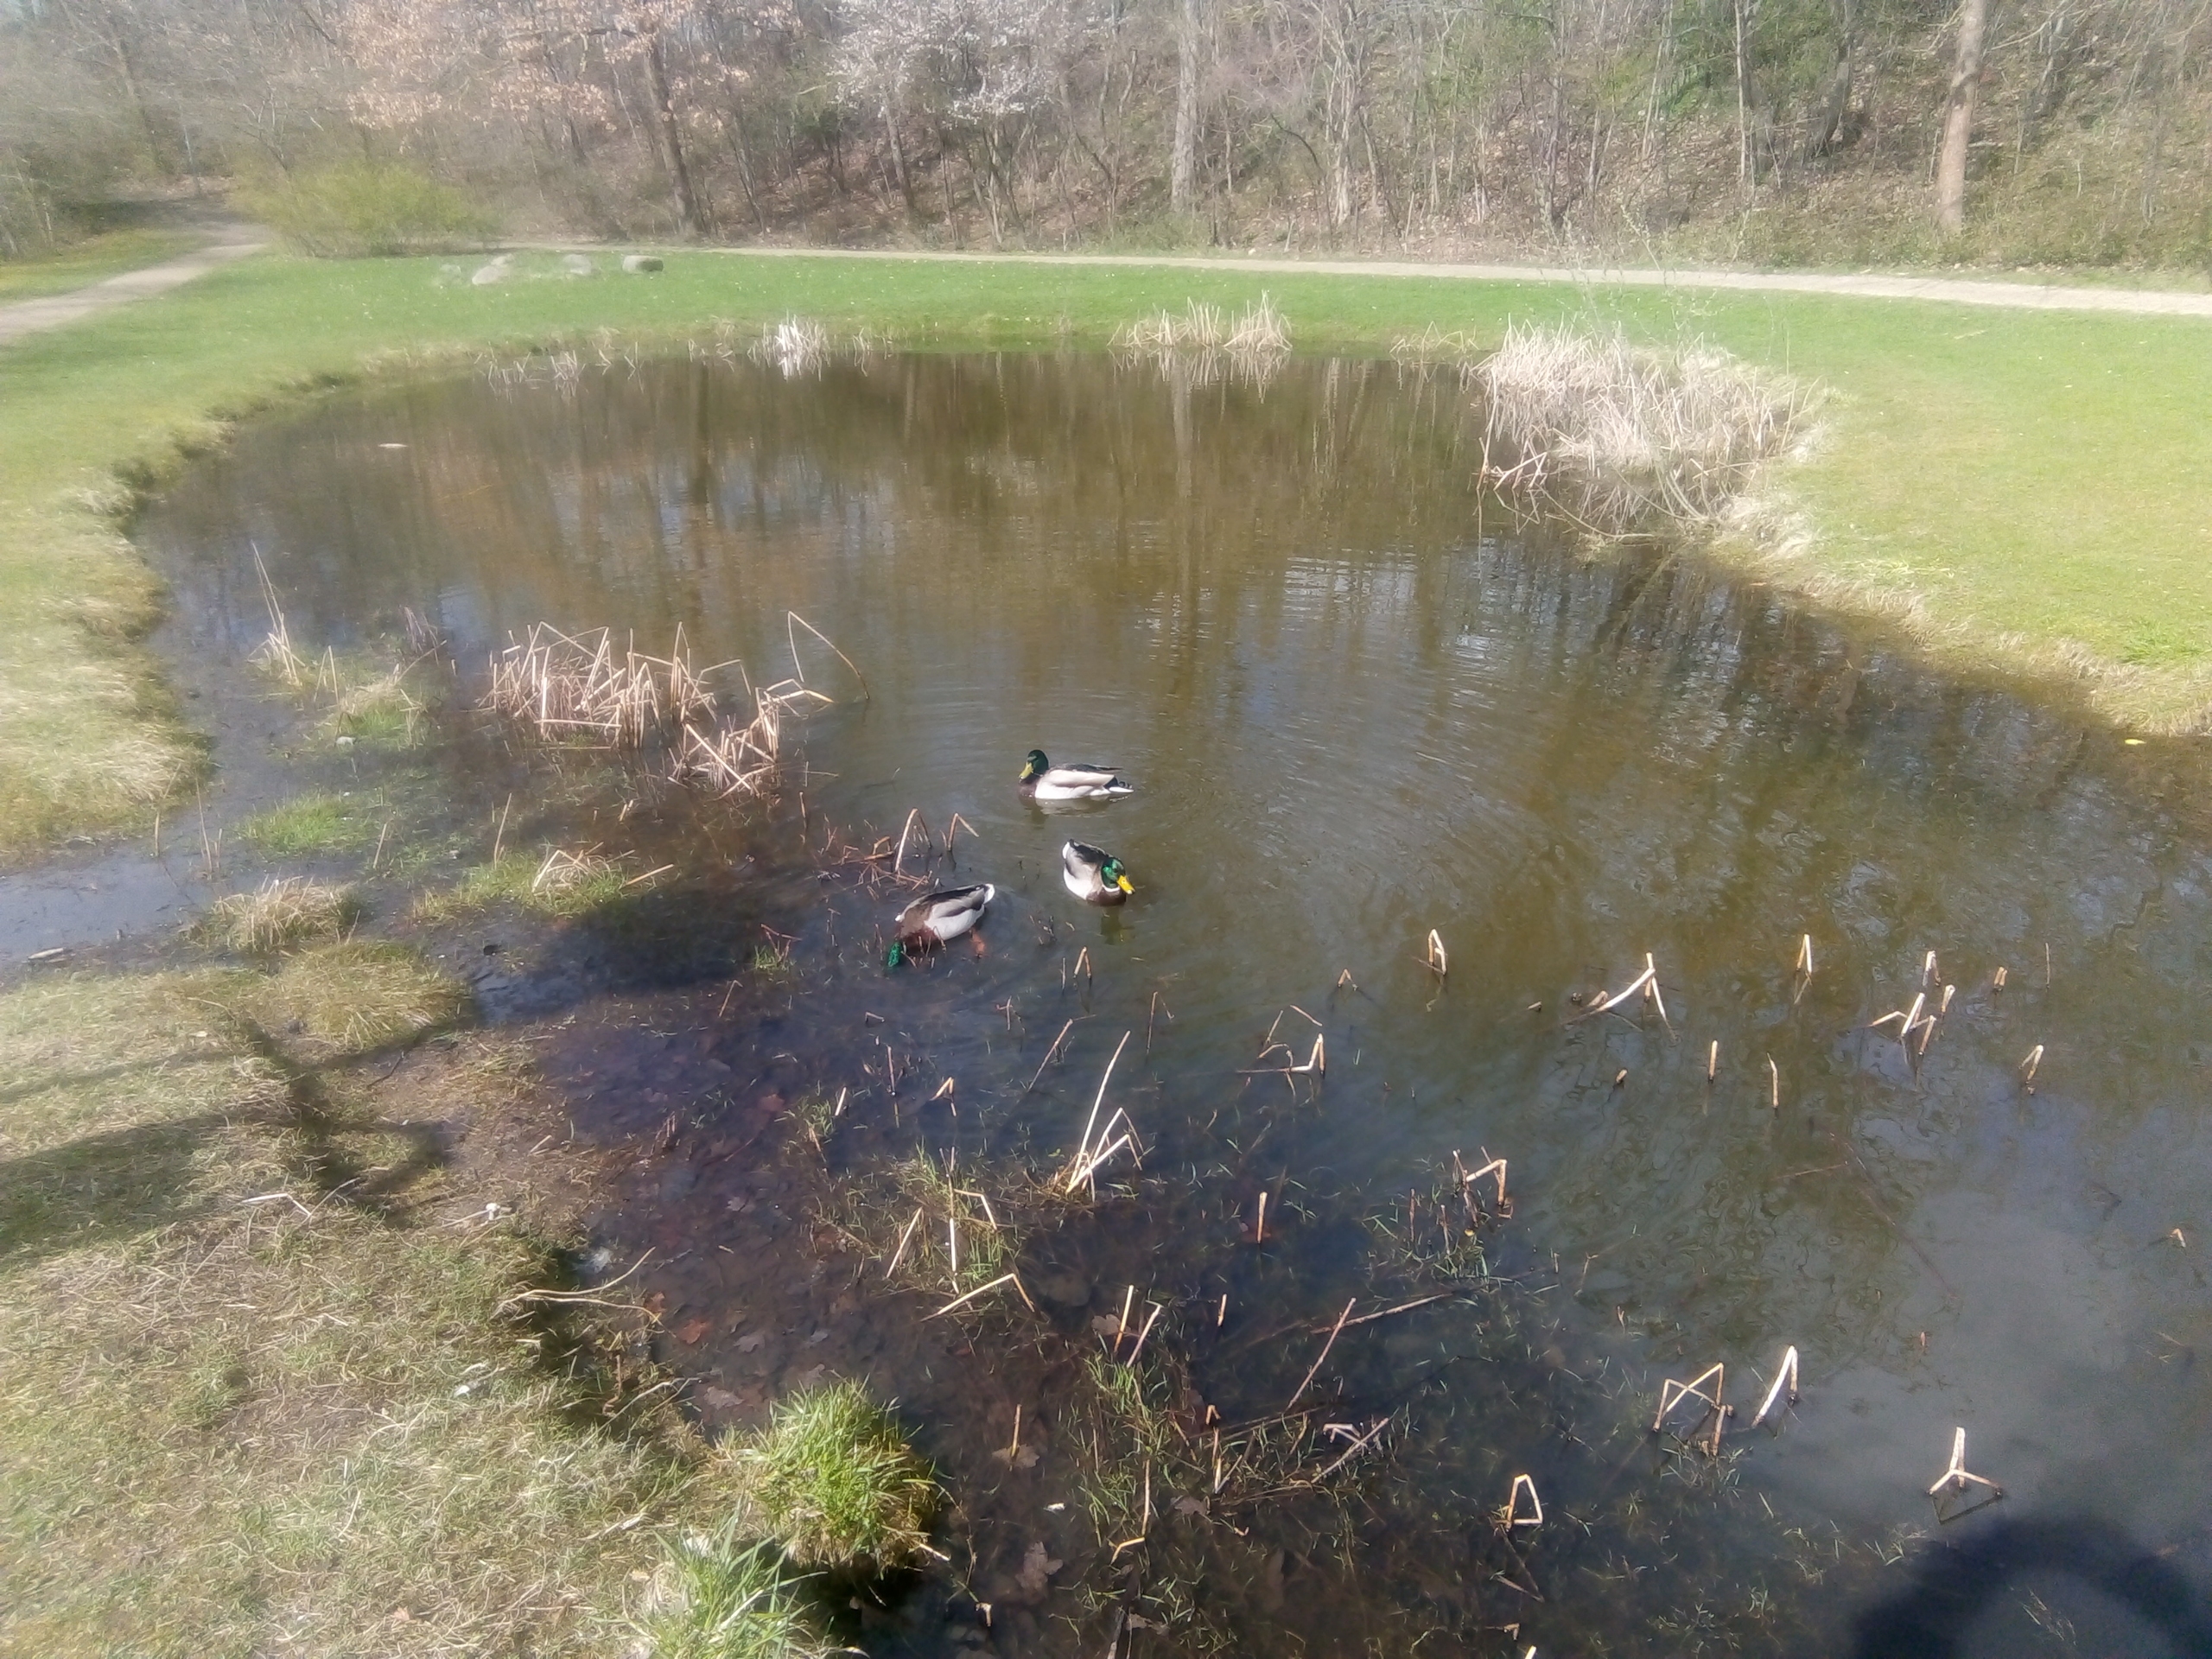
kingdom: Animalia
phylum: Chordata
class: Aves
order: Anseriformes
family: Anatidae
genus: Anas
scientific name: Anas platyrhynchos
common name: Gråand
